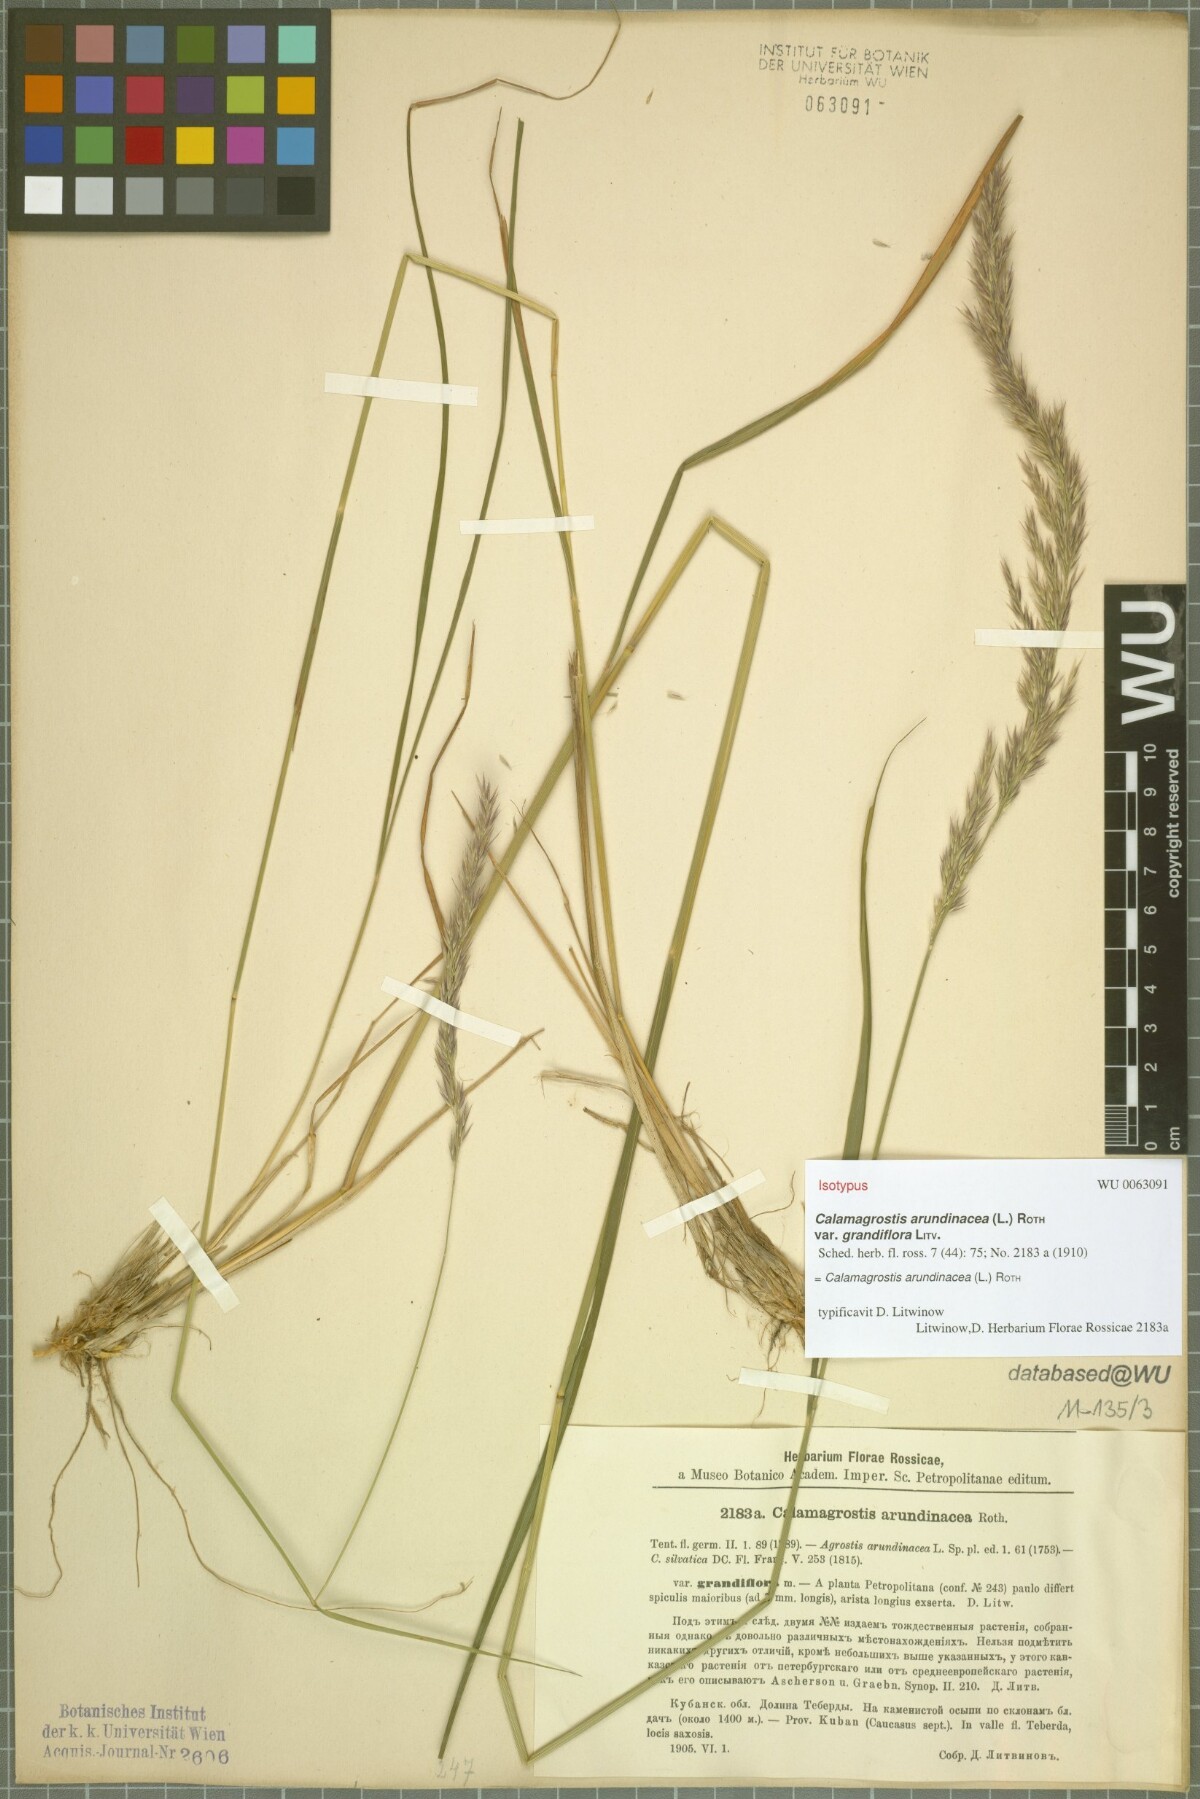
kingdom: Plantae
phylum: Tracheophyta
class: Liliopsida
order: Poales
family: Poaceae
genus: Calamagrostis
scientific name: Calamagrostis arundinacea
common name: Metskastik
